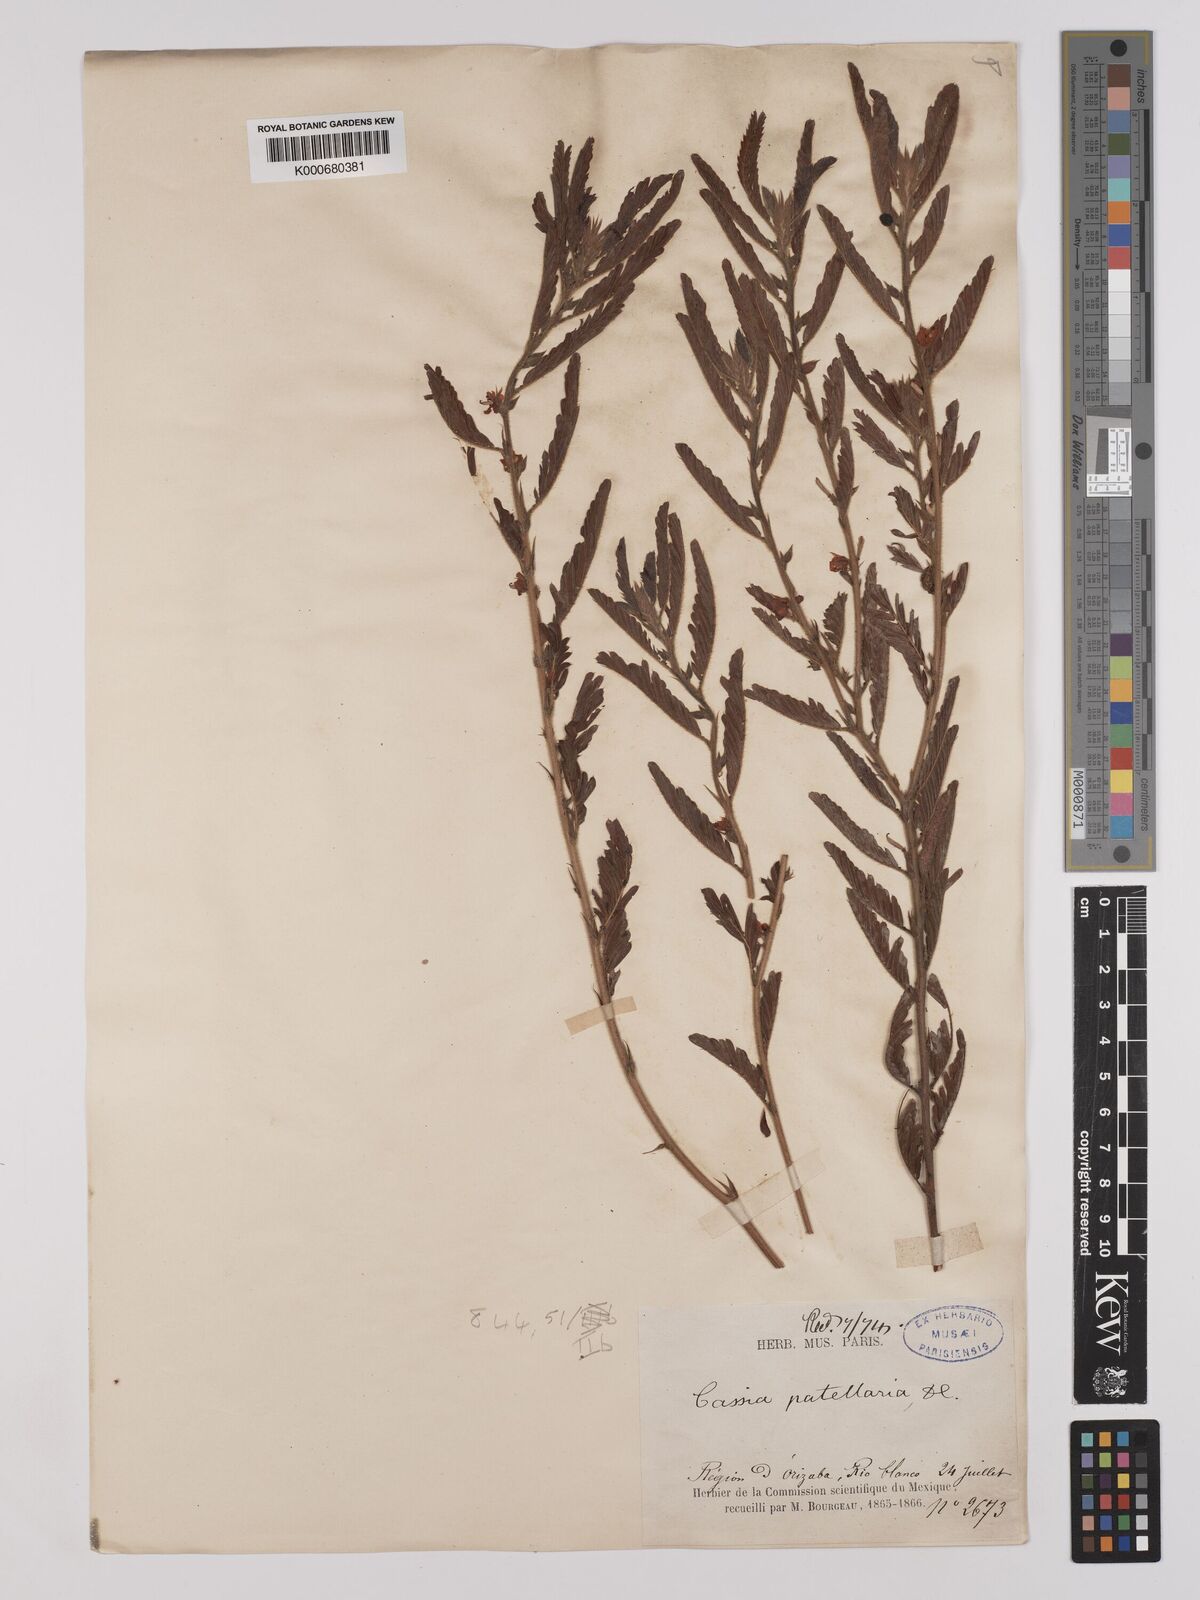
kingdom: Plantae
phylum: Tracheophyta
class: Magnoliopsida
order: Fabales
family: Fabaceae
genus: Chamaecrista
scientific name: Chamaecrista nictitans
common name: Sensitive cassia
